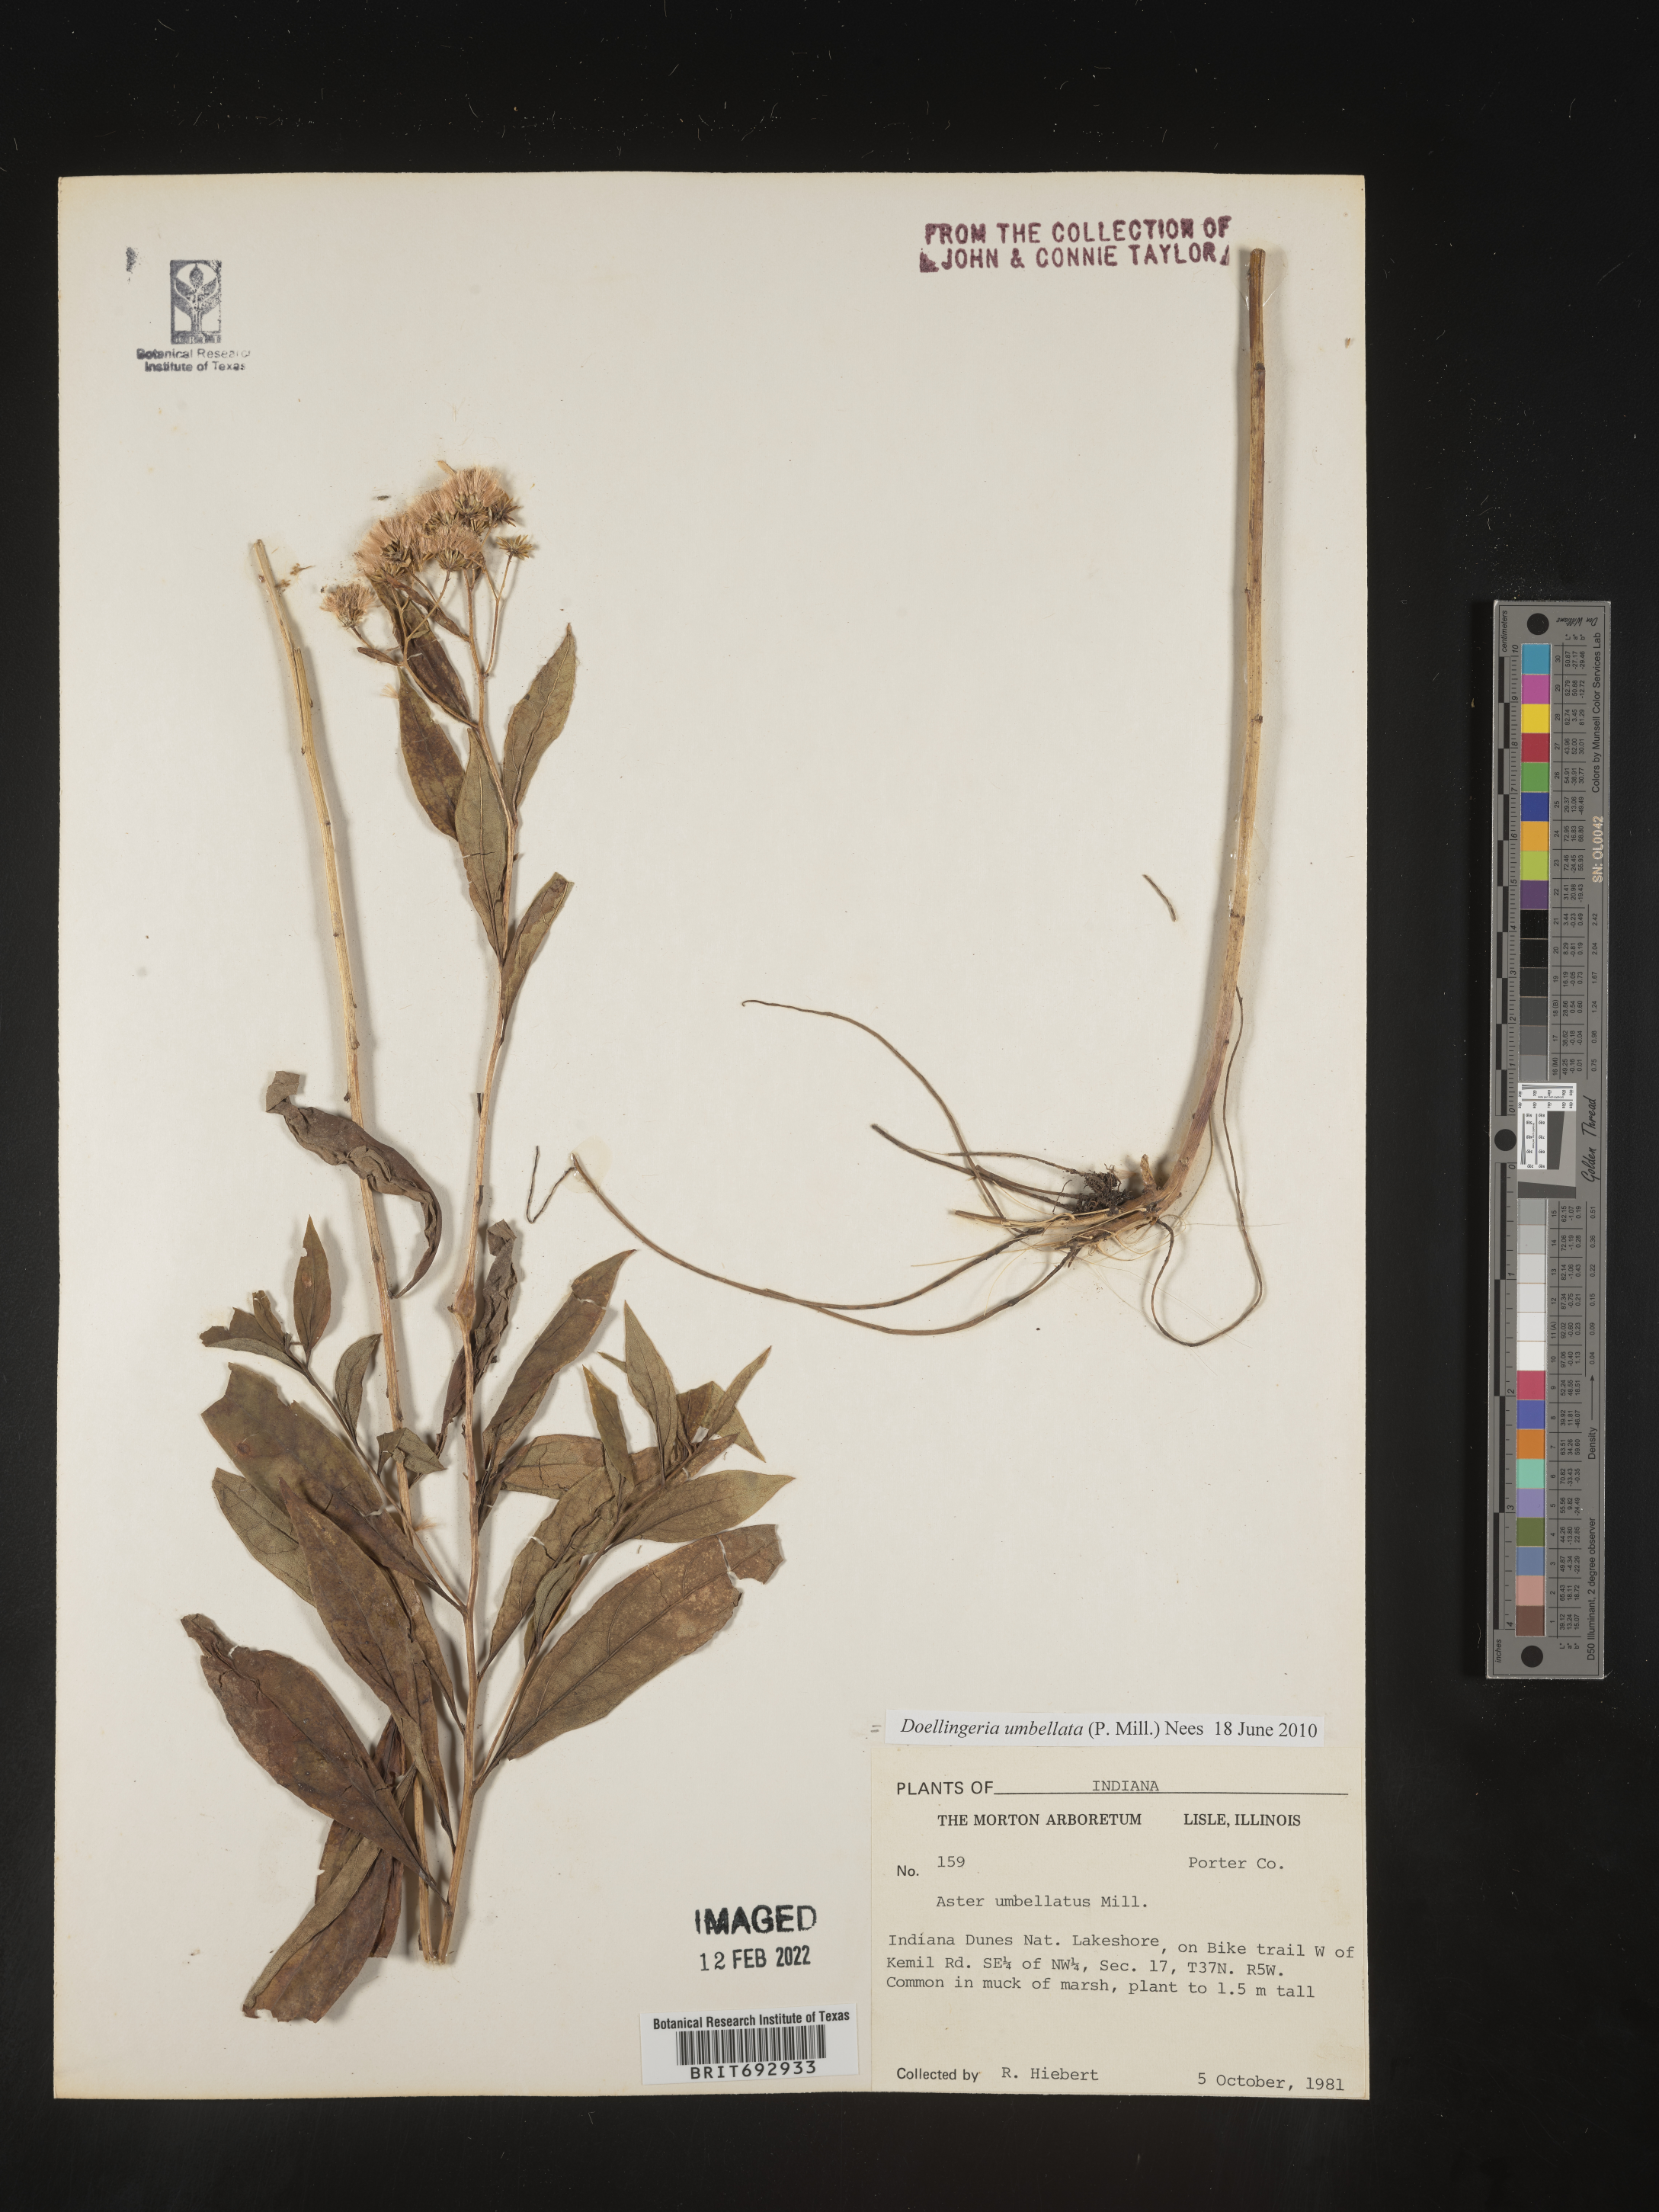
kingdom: Plantae
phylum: Tracheophyta
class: Magnoliopsida
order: Asterales
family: Asteraceae
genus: Doellingeria
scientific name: Doellingeria umbellata
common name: Flat-top white aster
